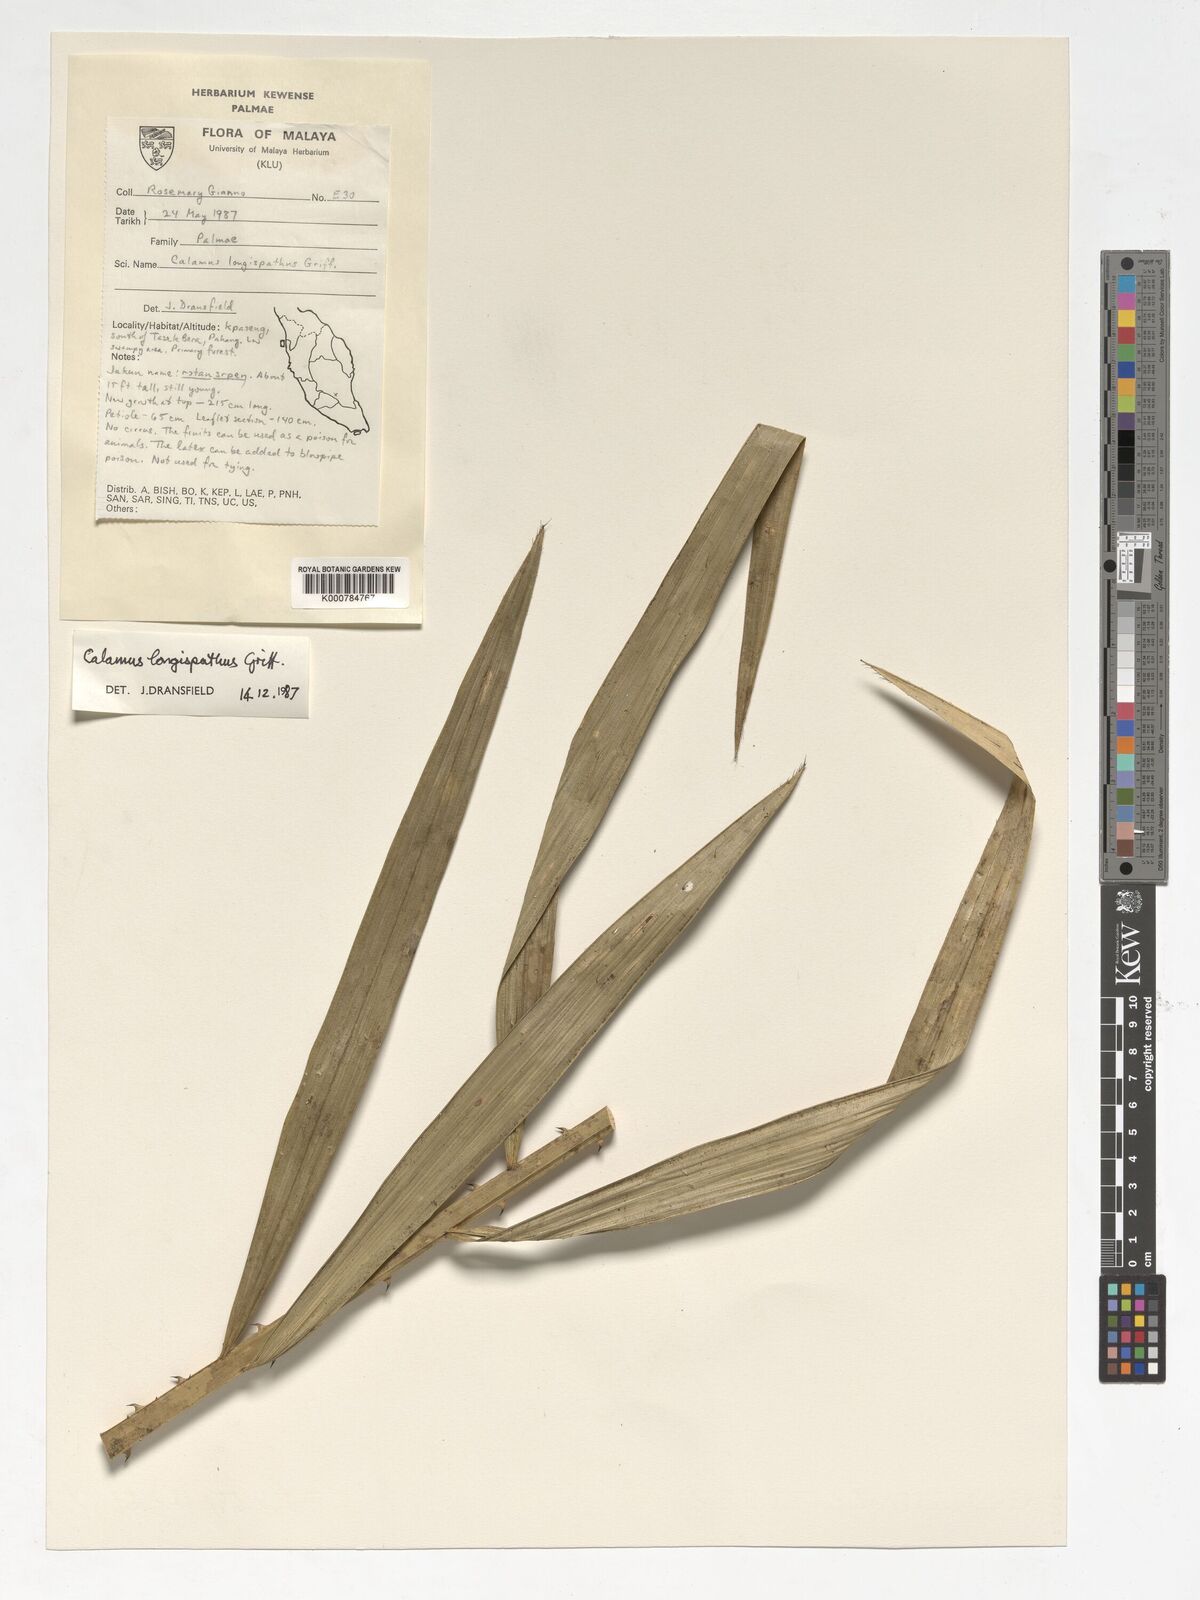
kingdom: Plantae
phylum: Tracheophyta
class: Liliopsida
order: Arecales
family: Arecaceae
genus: Calamus
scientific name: Calamus longispatha
